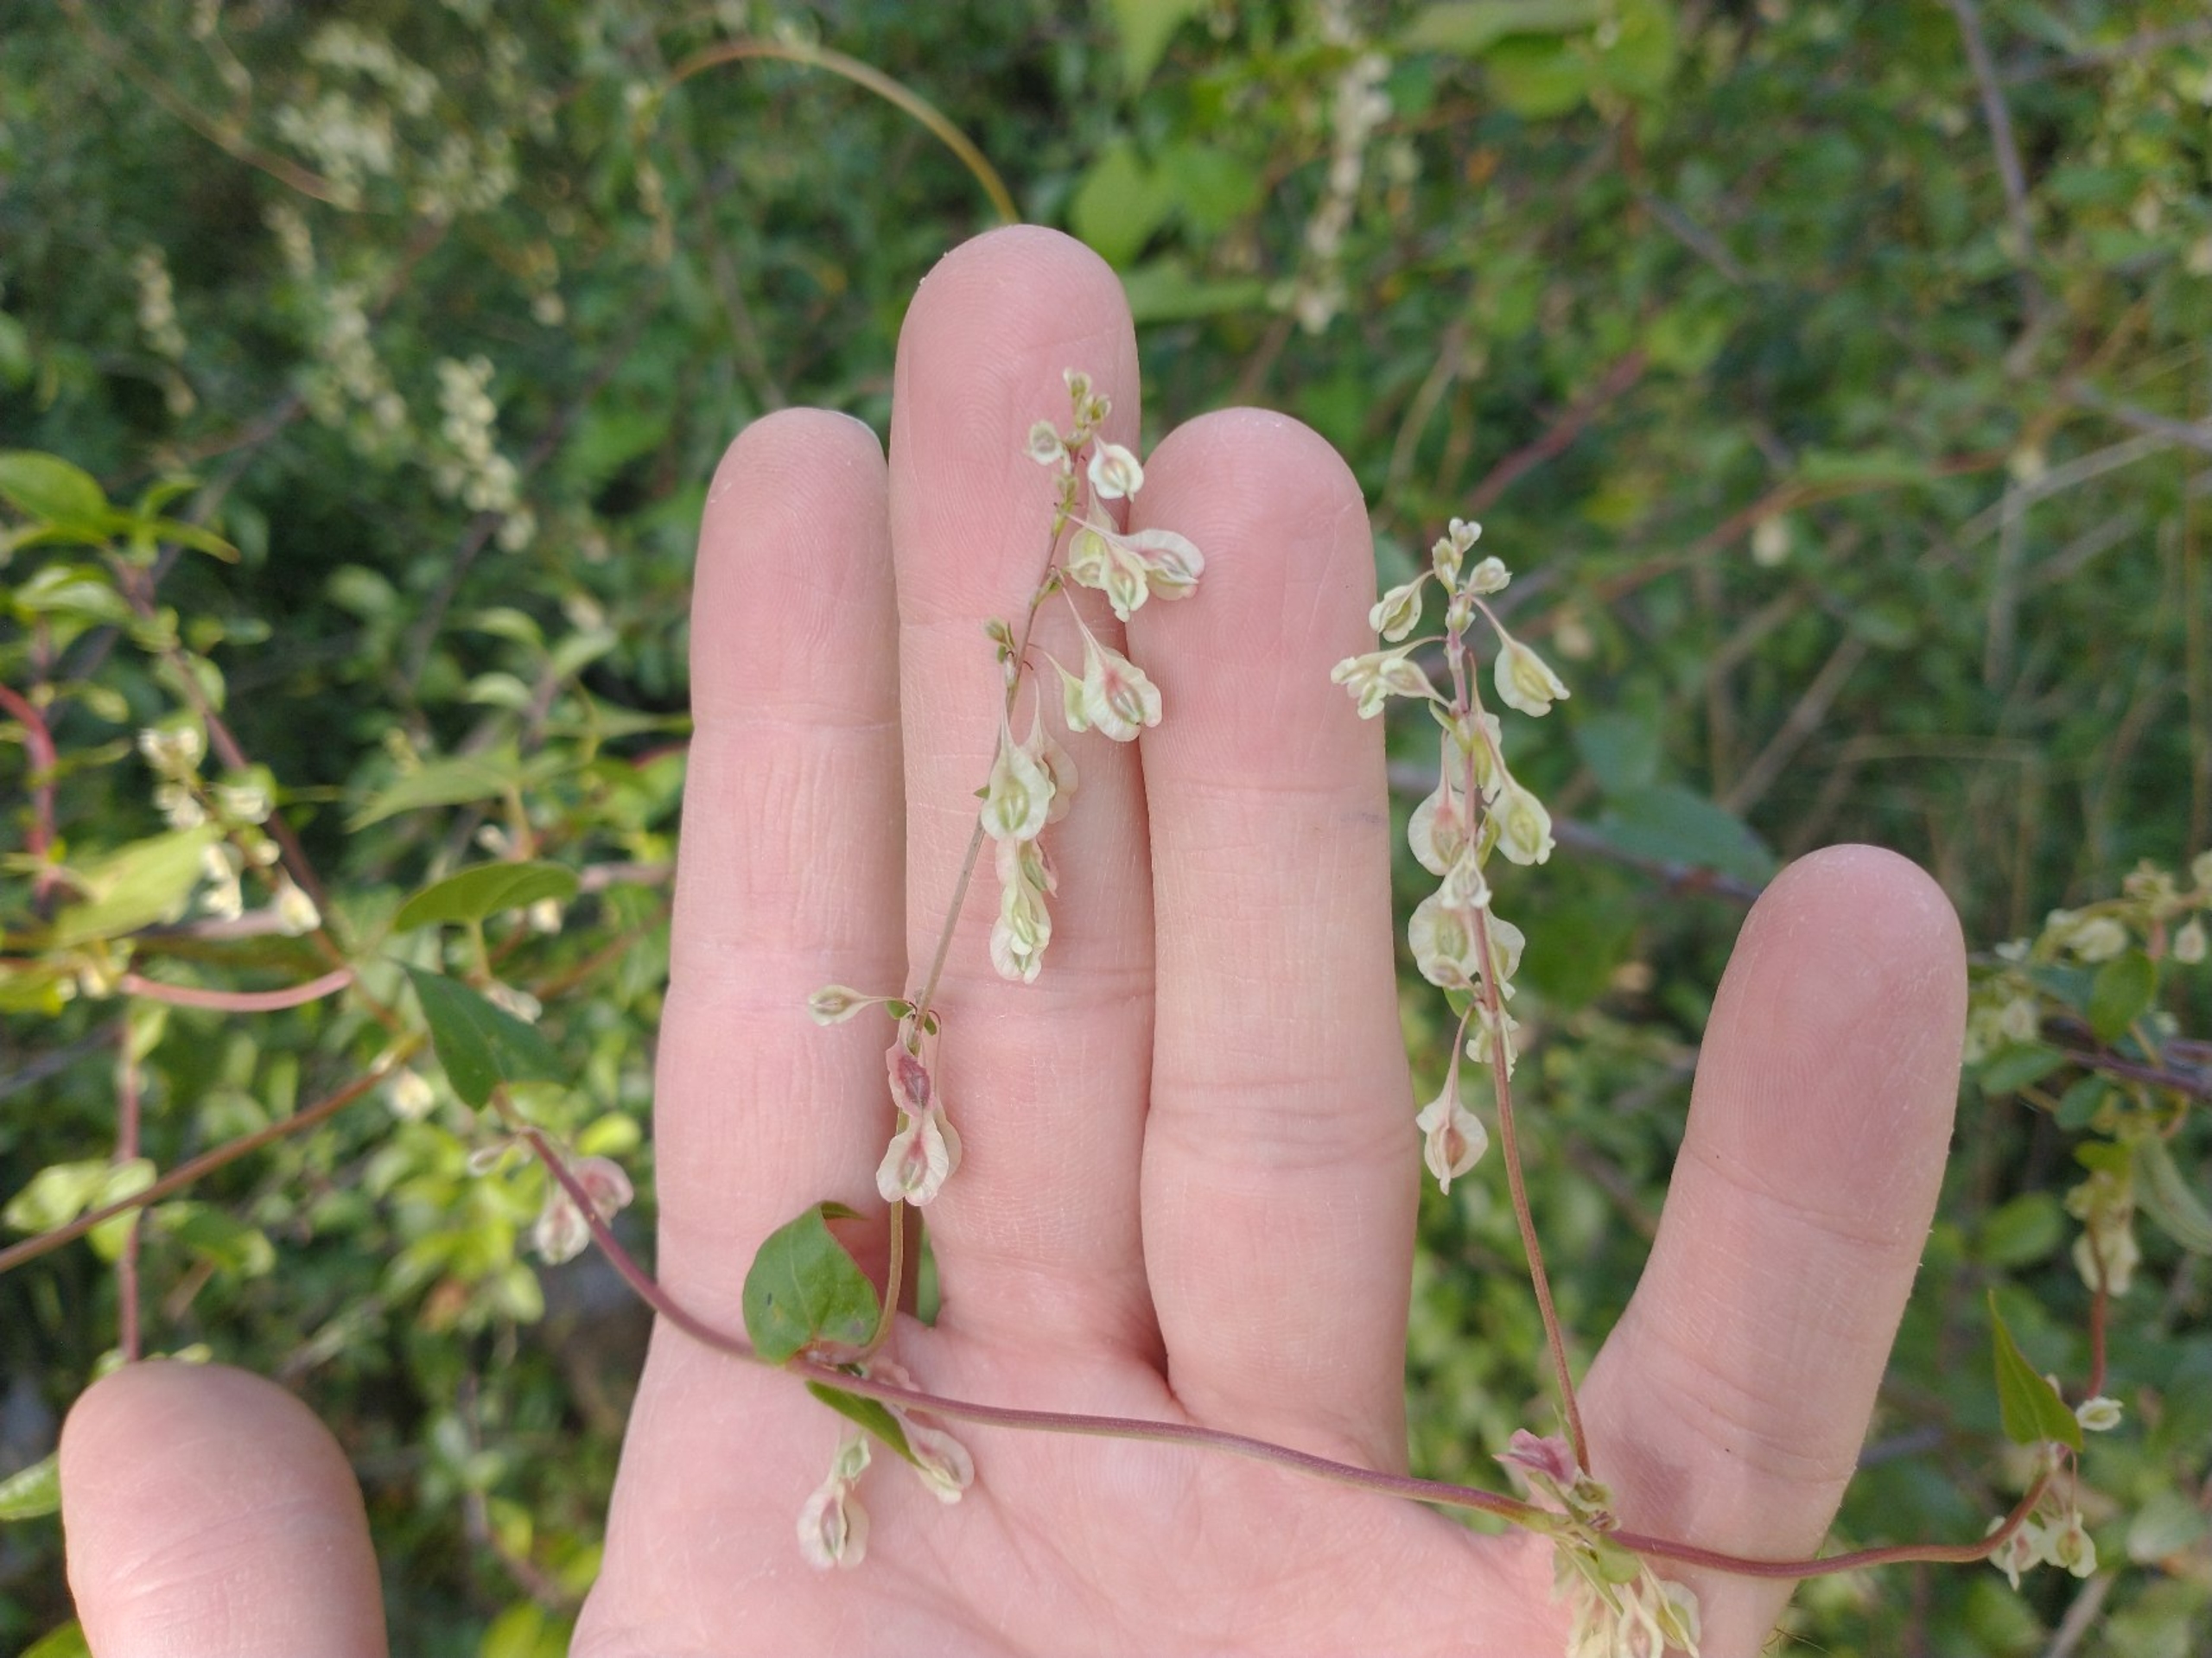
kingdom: Plantae
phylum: Tracheophyta
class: Magnoliopsida
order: Caryophyllales
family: Polygonaceae
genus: Fallopia
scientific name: Fallopia dumetorum
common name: Vinge-pileurt
